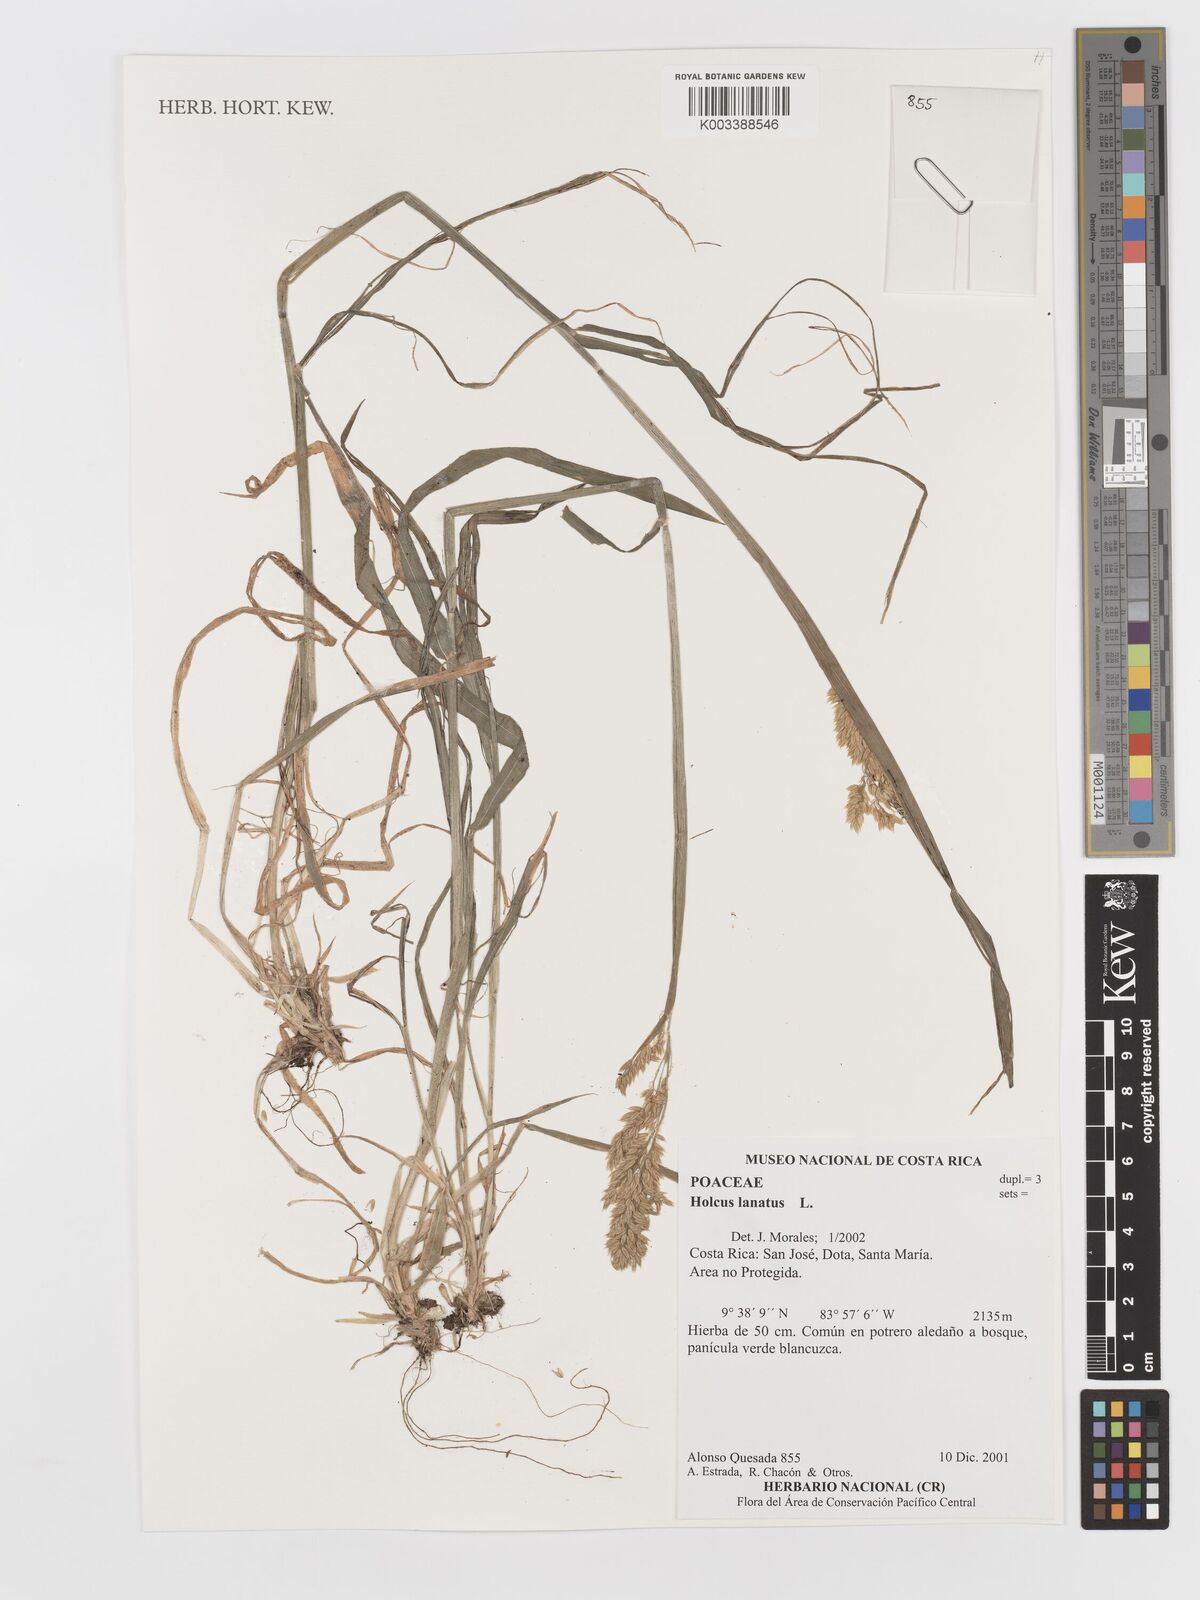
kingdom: Plantae
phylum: Tracheophyta
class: Liliopsida
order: Poales
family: Poaceae
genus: Holcus
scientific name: Holcus lanatus
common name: Yorkshire-fog
